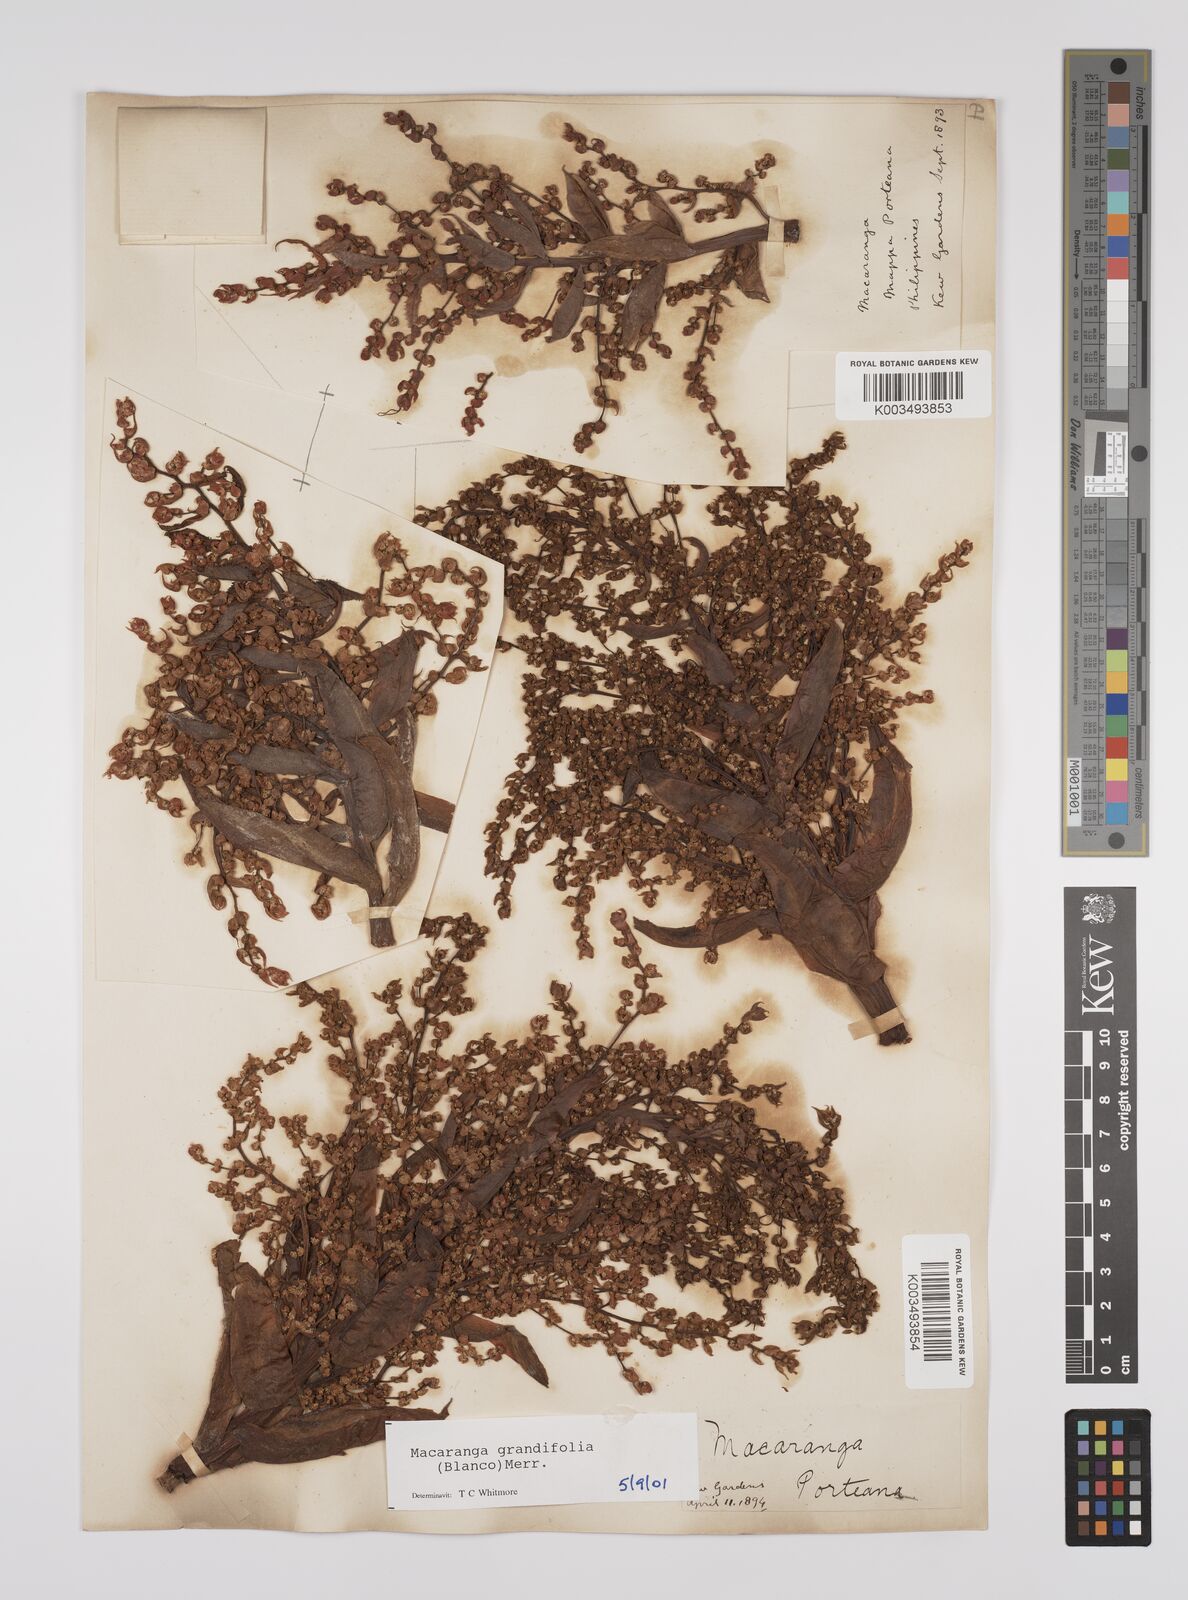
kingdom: Plantae
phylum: Tracheophyta
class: Magnoliopsida
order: Malpighiales
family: Euphorbiaceae
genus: Macaranga
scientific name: Macaranga grandifolia
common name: Coraltree
